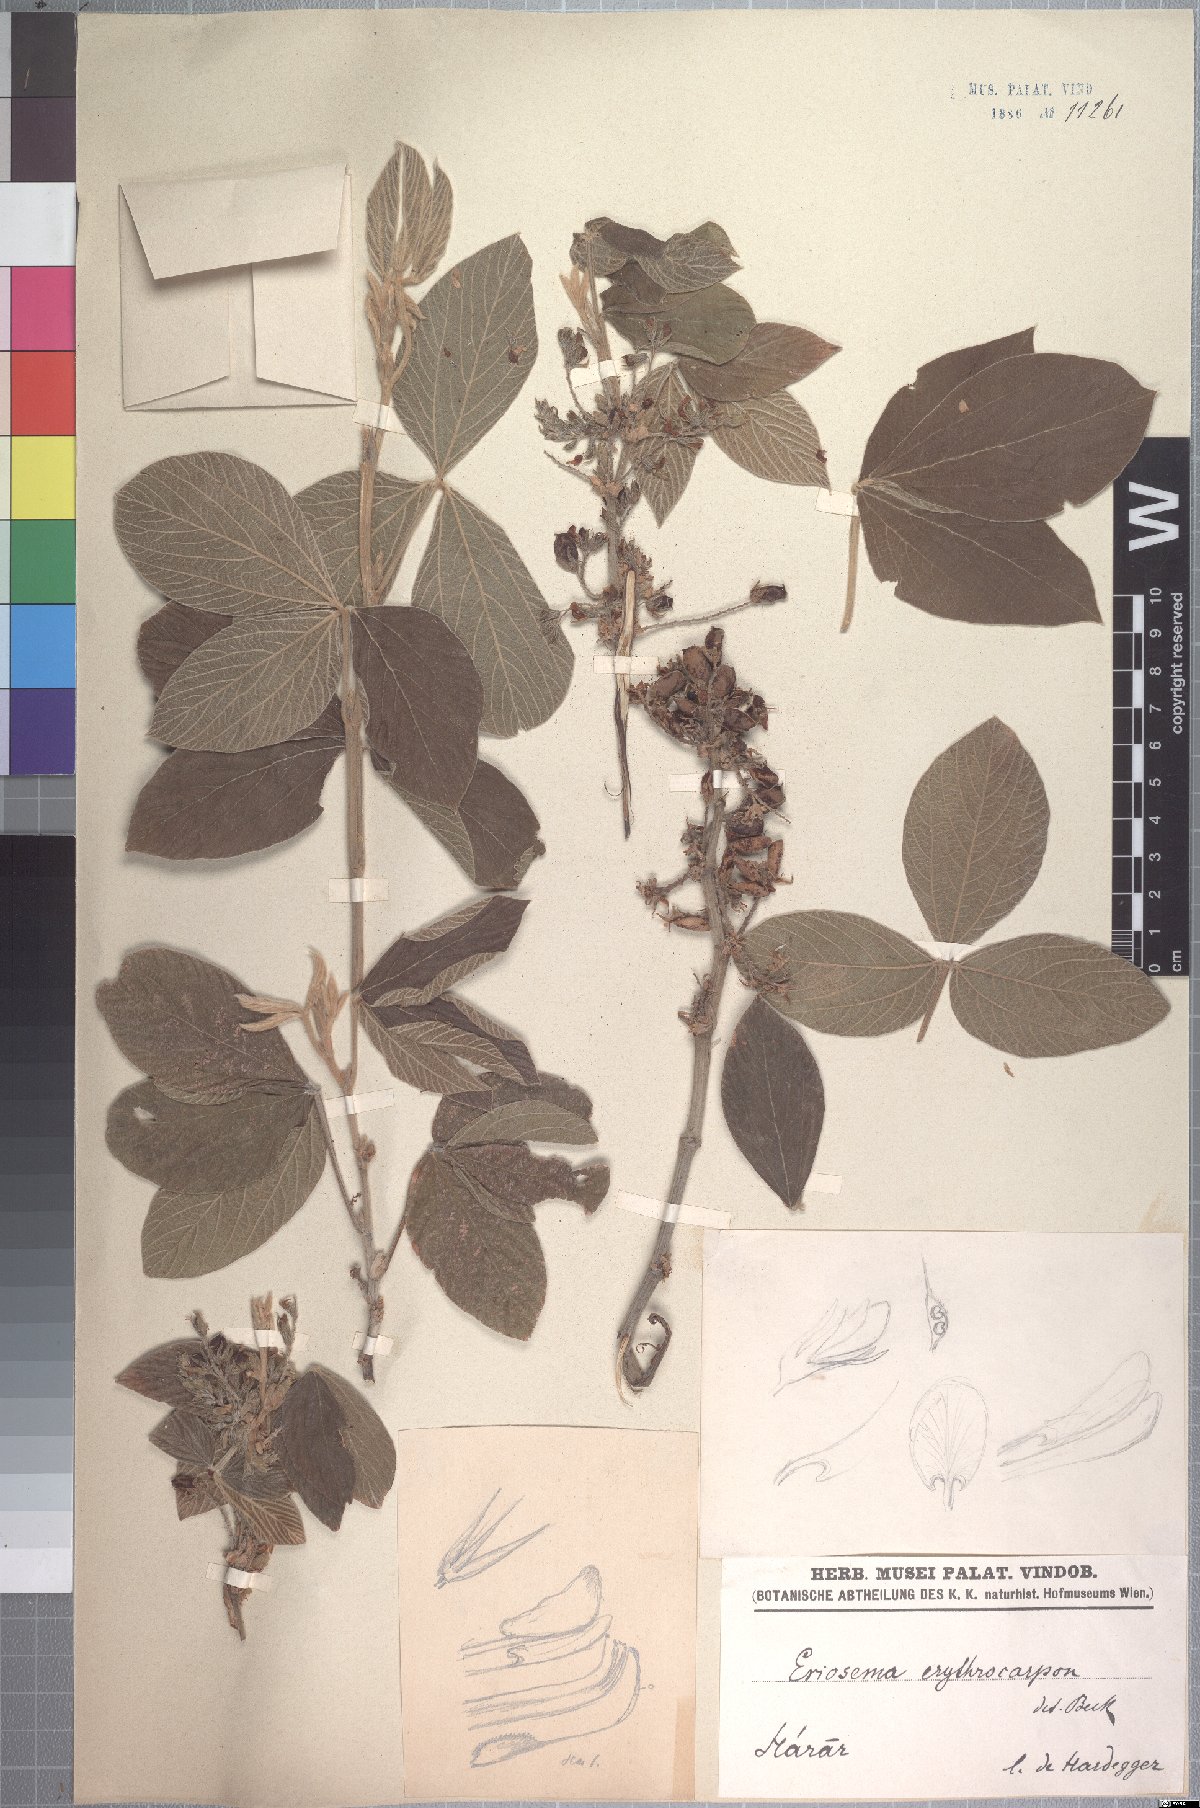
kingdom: Plantae
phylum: Tracheophyta
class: Magnoliopsida
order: Fabales
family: Fabaceae
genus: Flemingia
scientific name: Flemingia grahamiana
